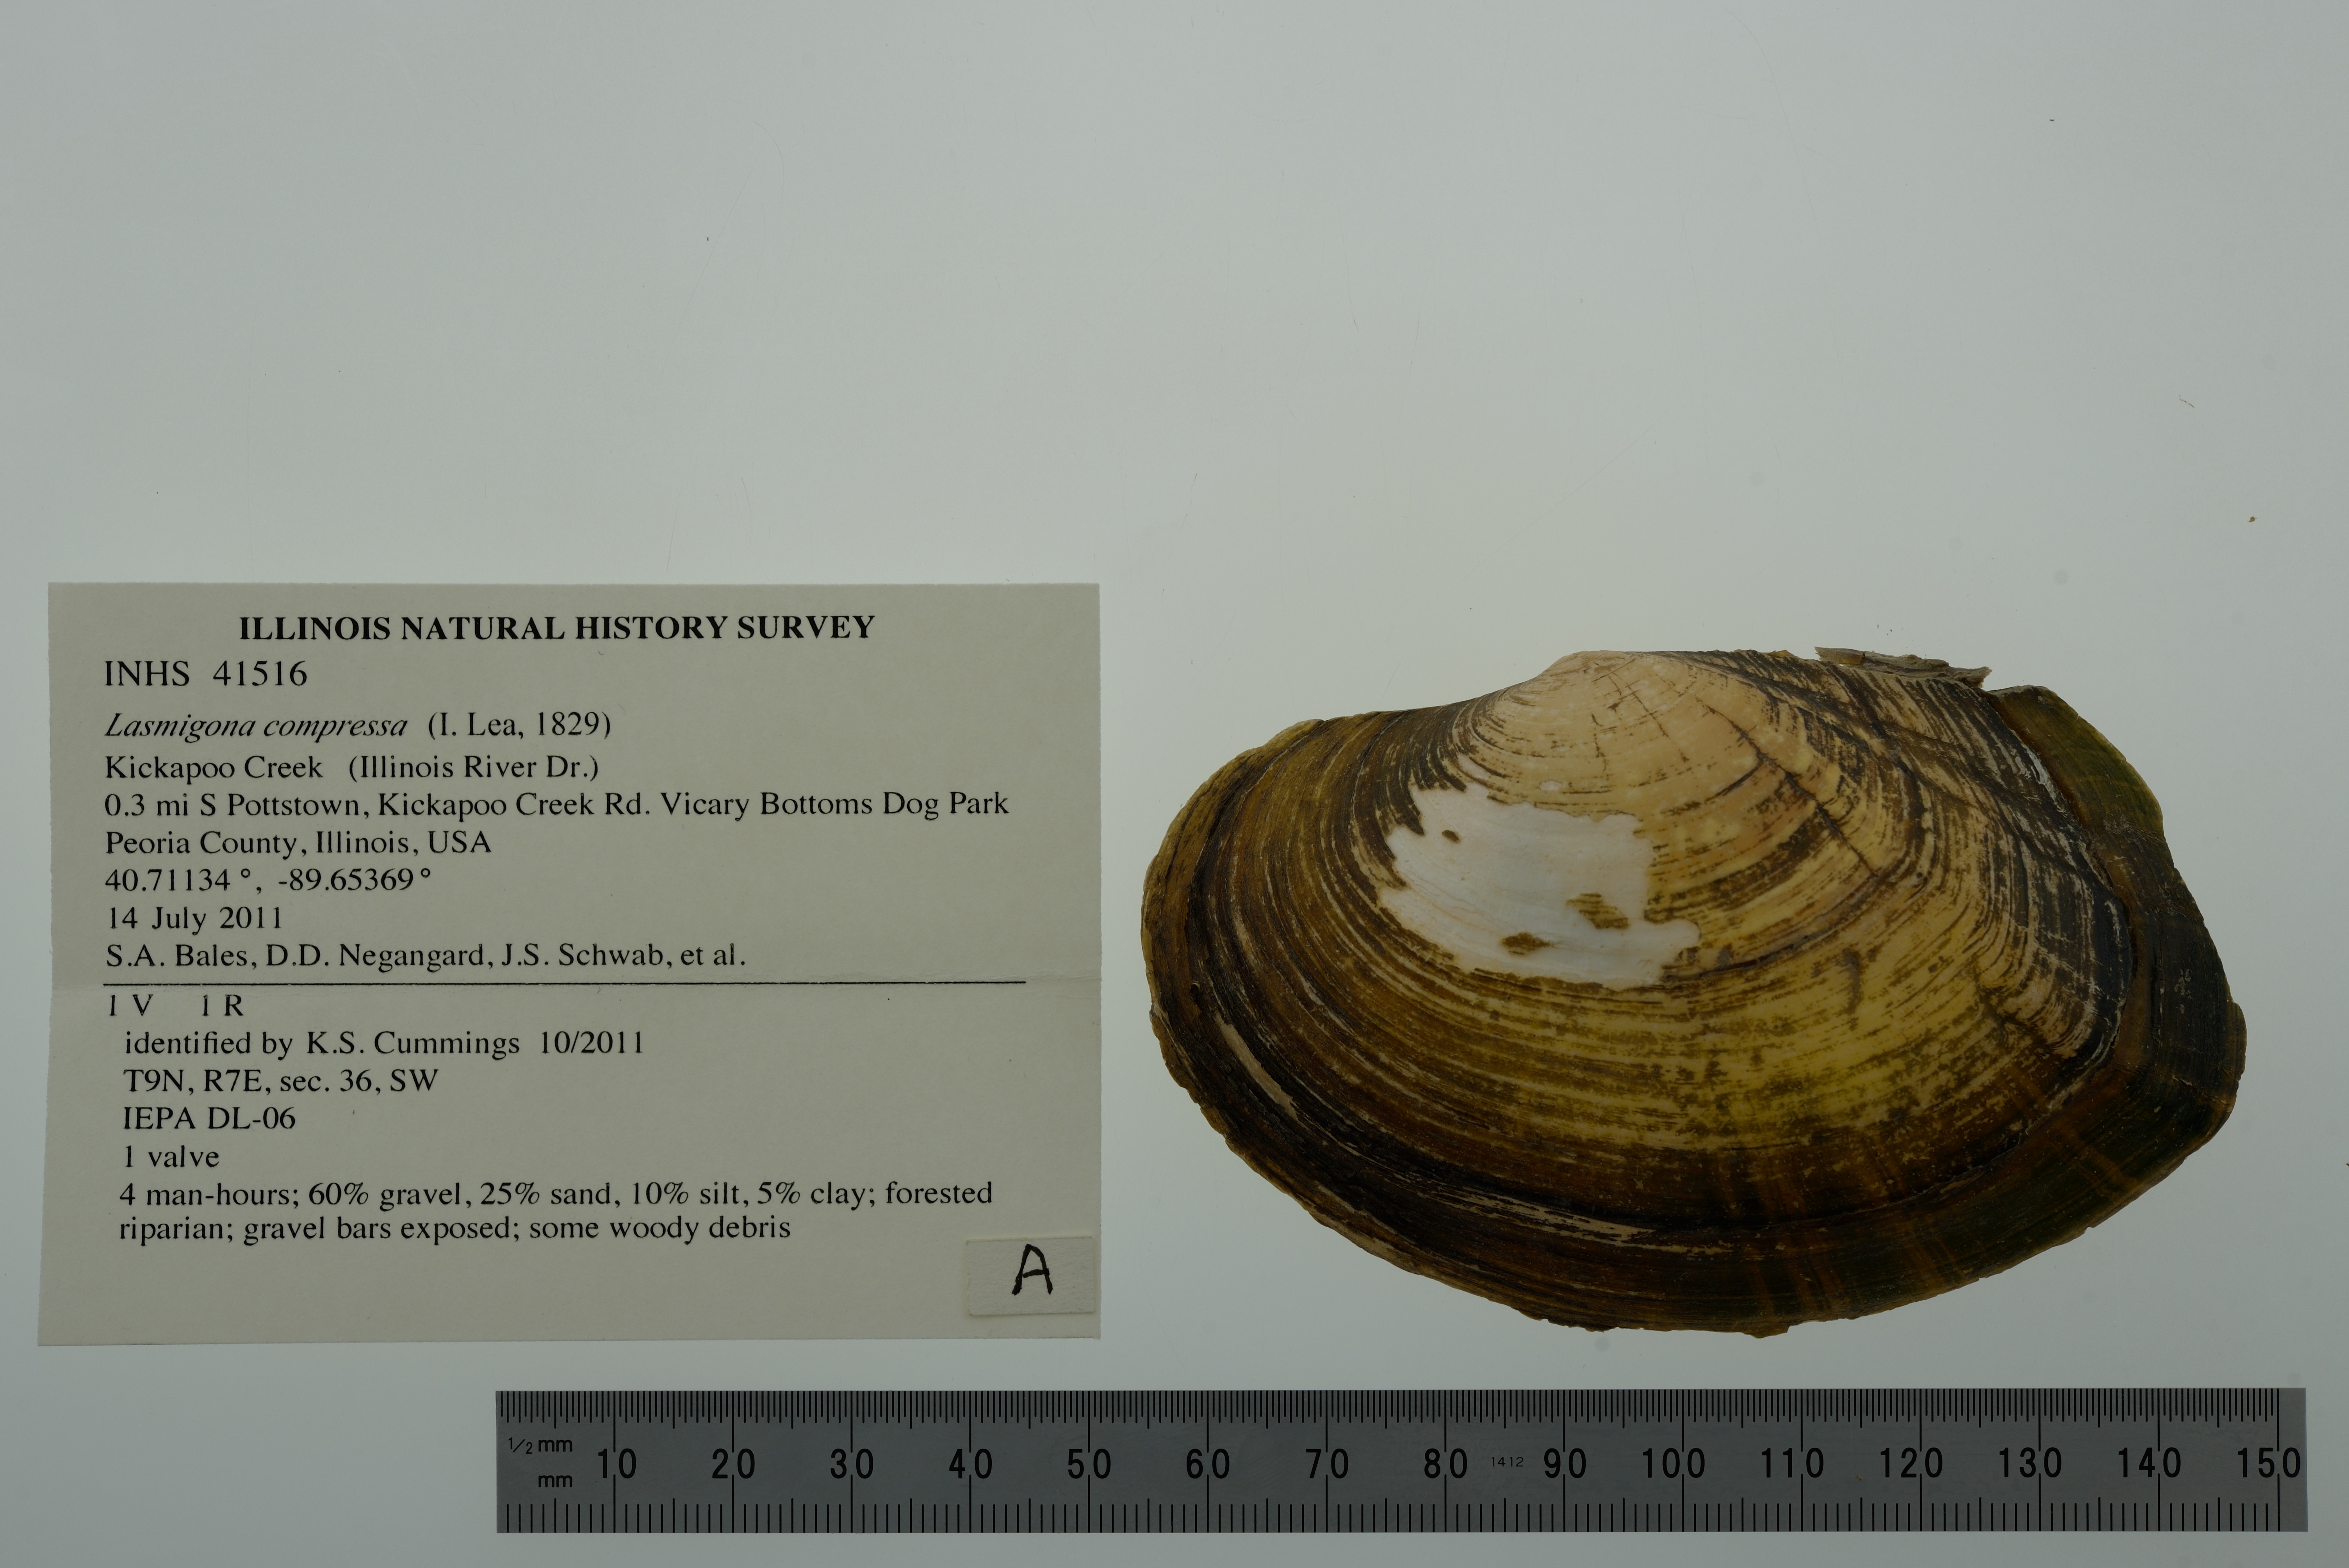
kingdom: Animalia
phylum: Mollusca
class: Bivalvia
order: Unionida
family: Unionidae
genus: Lasmigona
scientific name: Lasmigona compressa
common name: Creek heelsplitter
